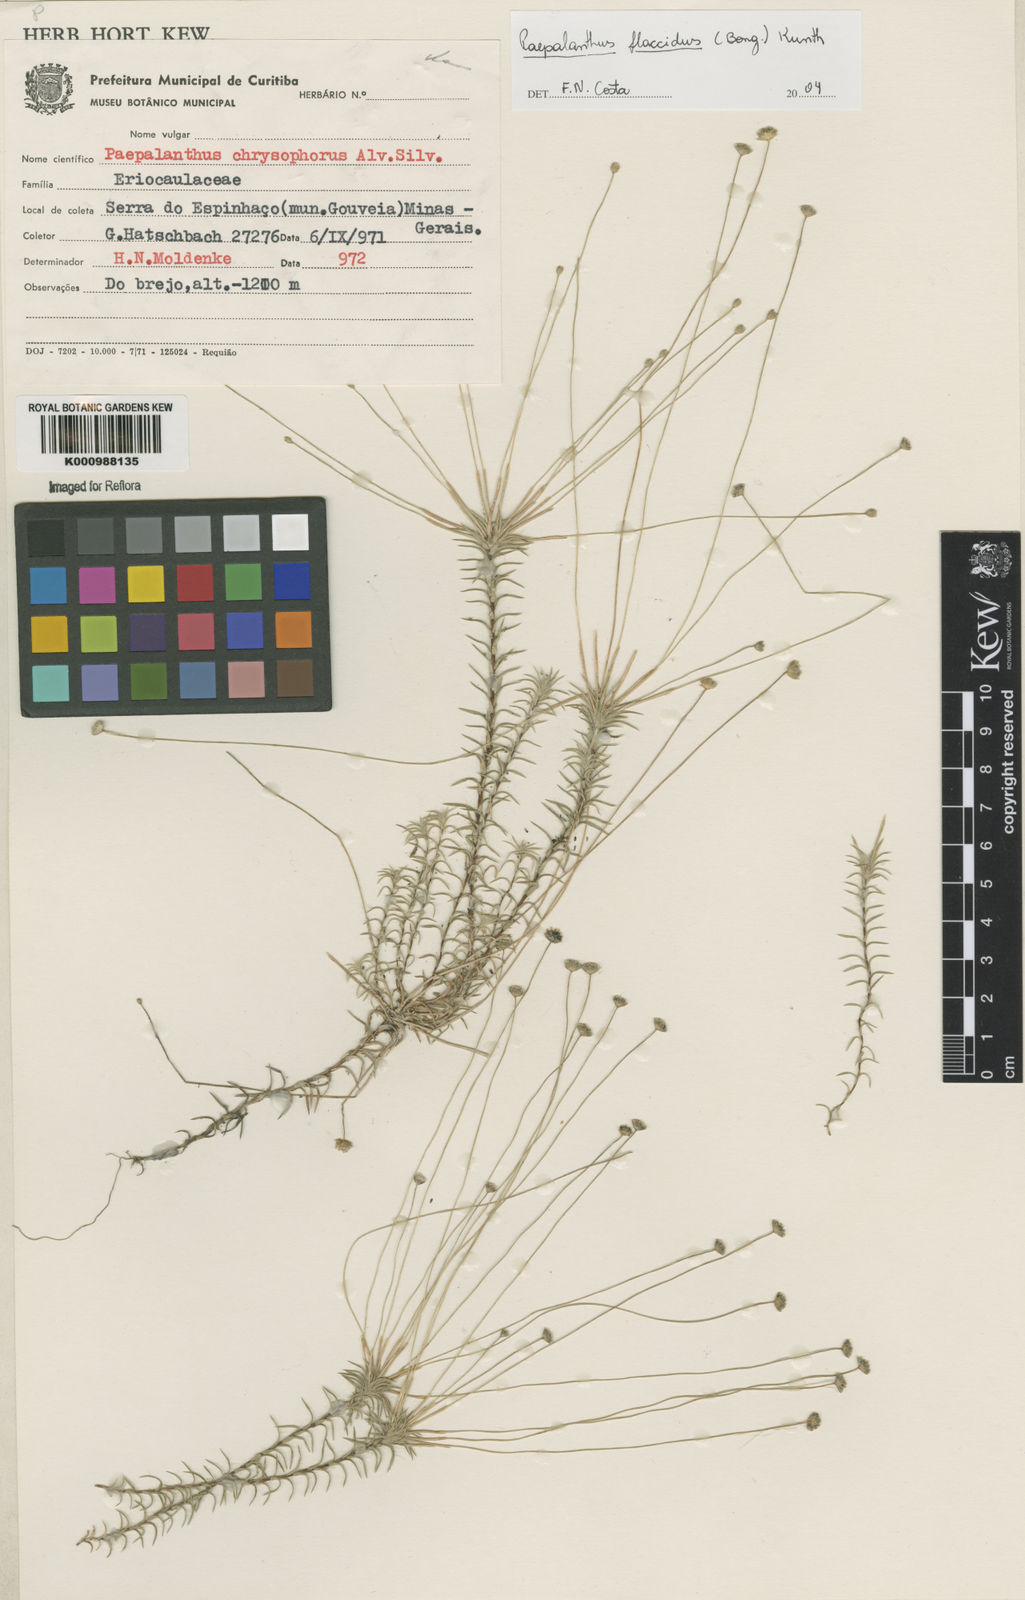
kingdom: Plantae
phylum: Tracheophyta
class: Liliopsida
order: Poales
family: Eriocaulaceae
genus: Paepalanthus
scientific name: Paepalanthus flaccidus
